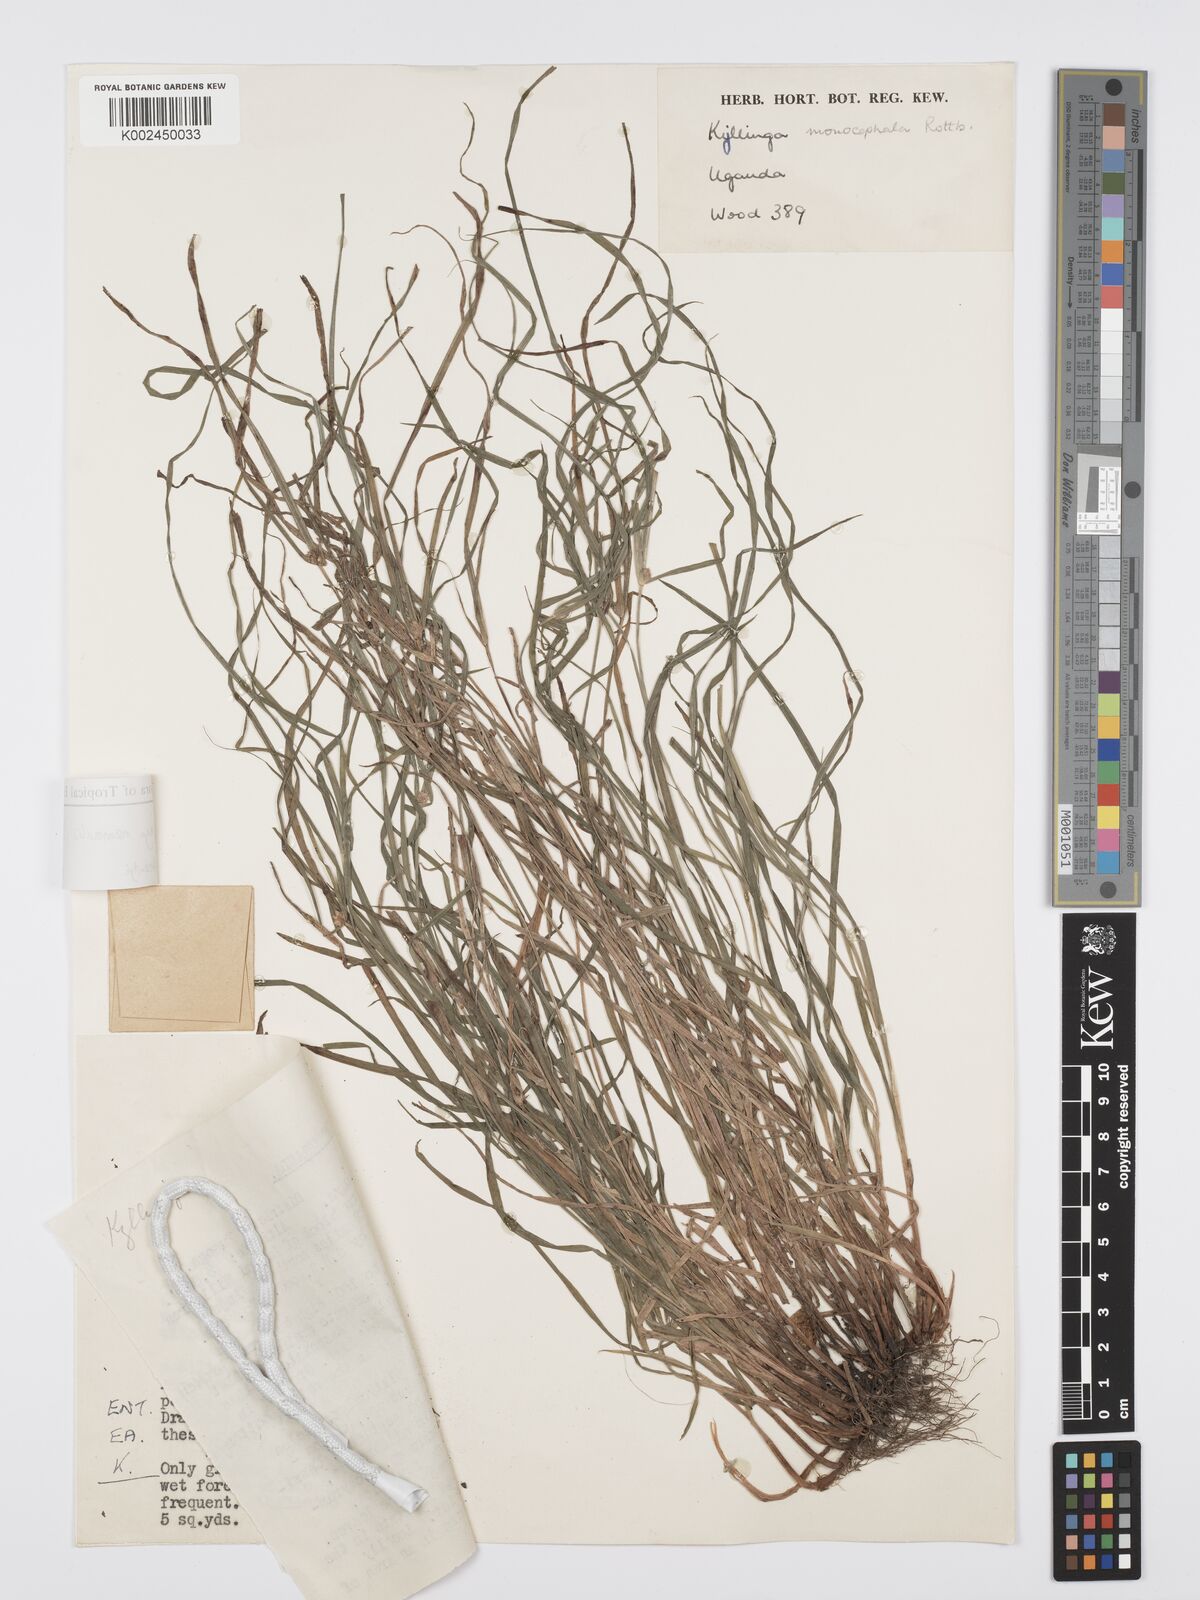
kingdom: Plantae
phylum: Tracheophyta
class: Liliopsida
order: Poales
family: Cyperaceae
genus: Cyperus
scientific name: Cyperus nemoralis
